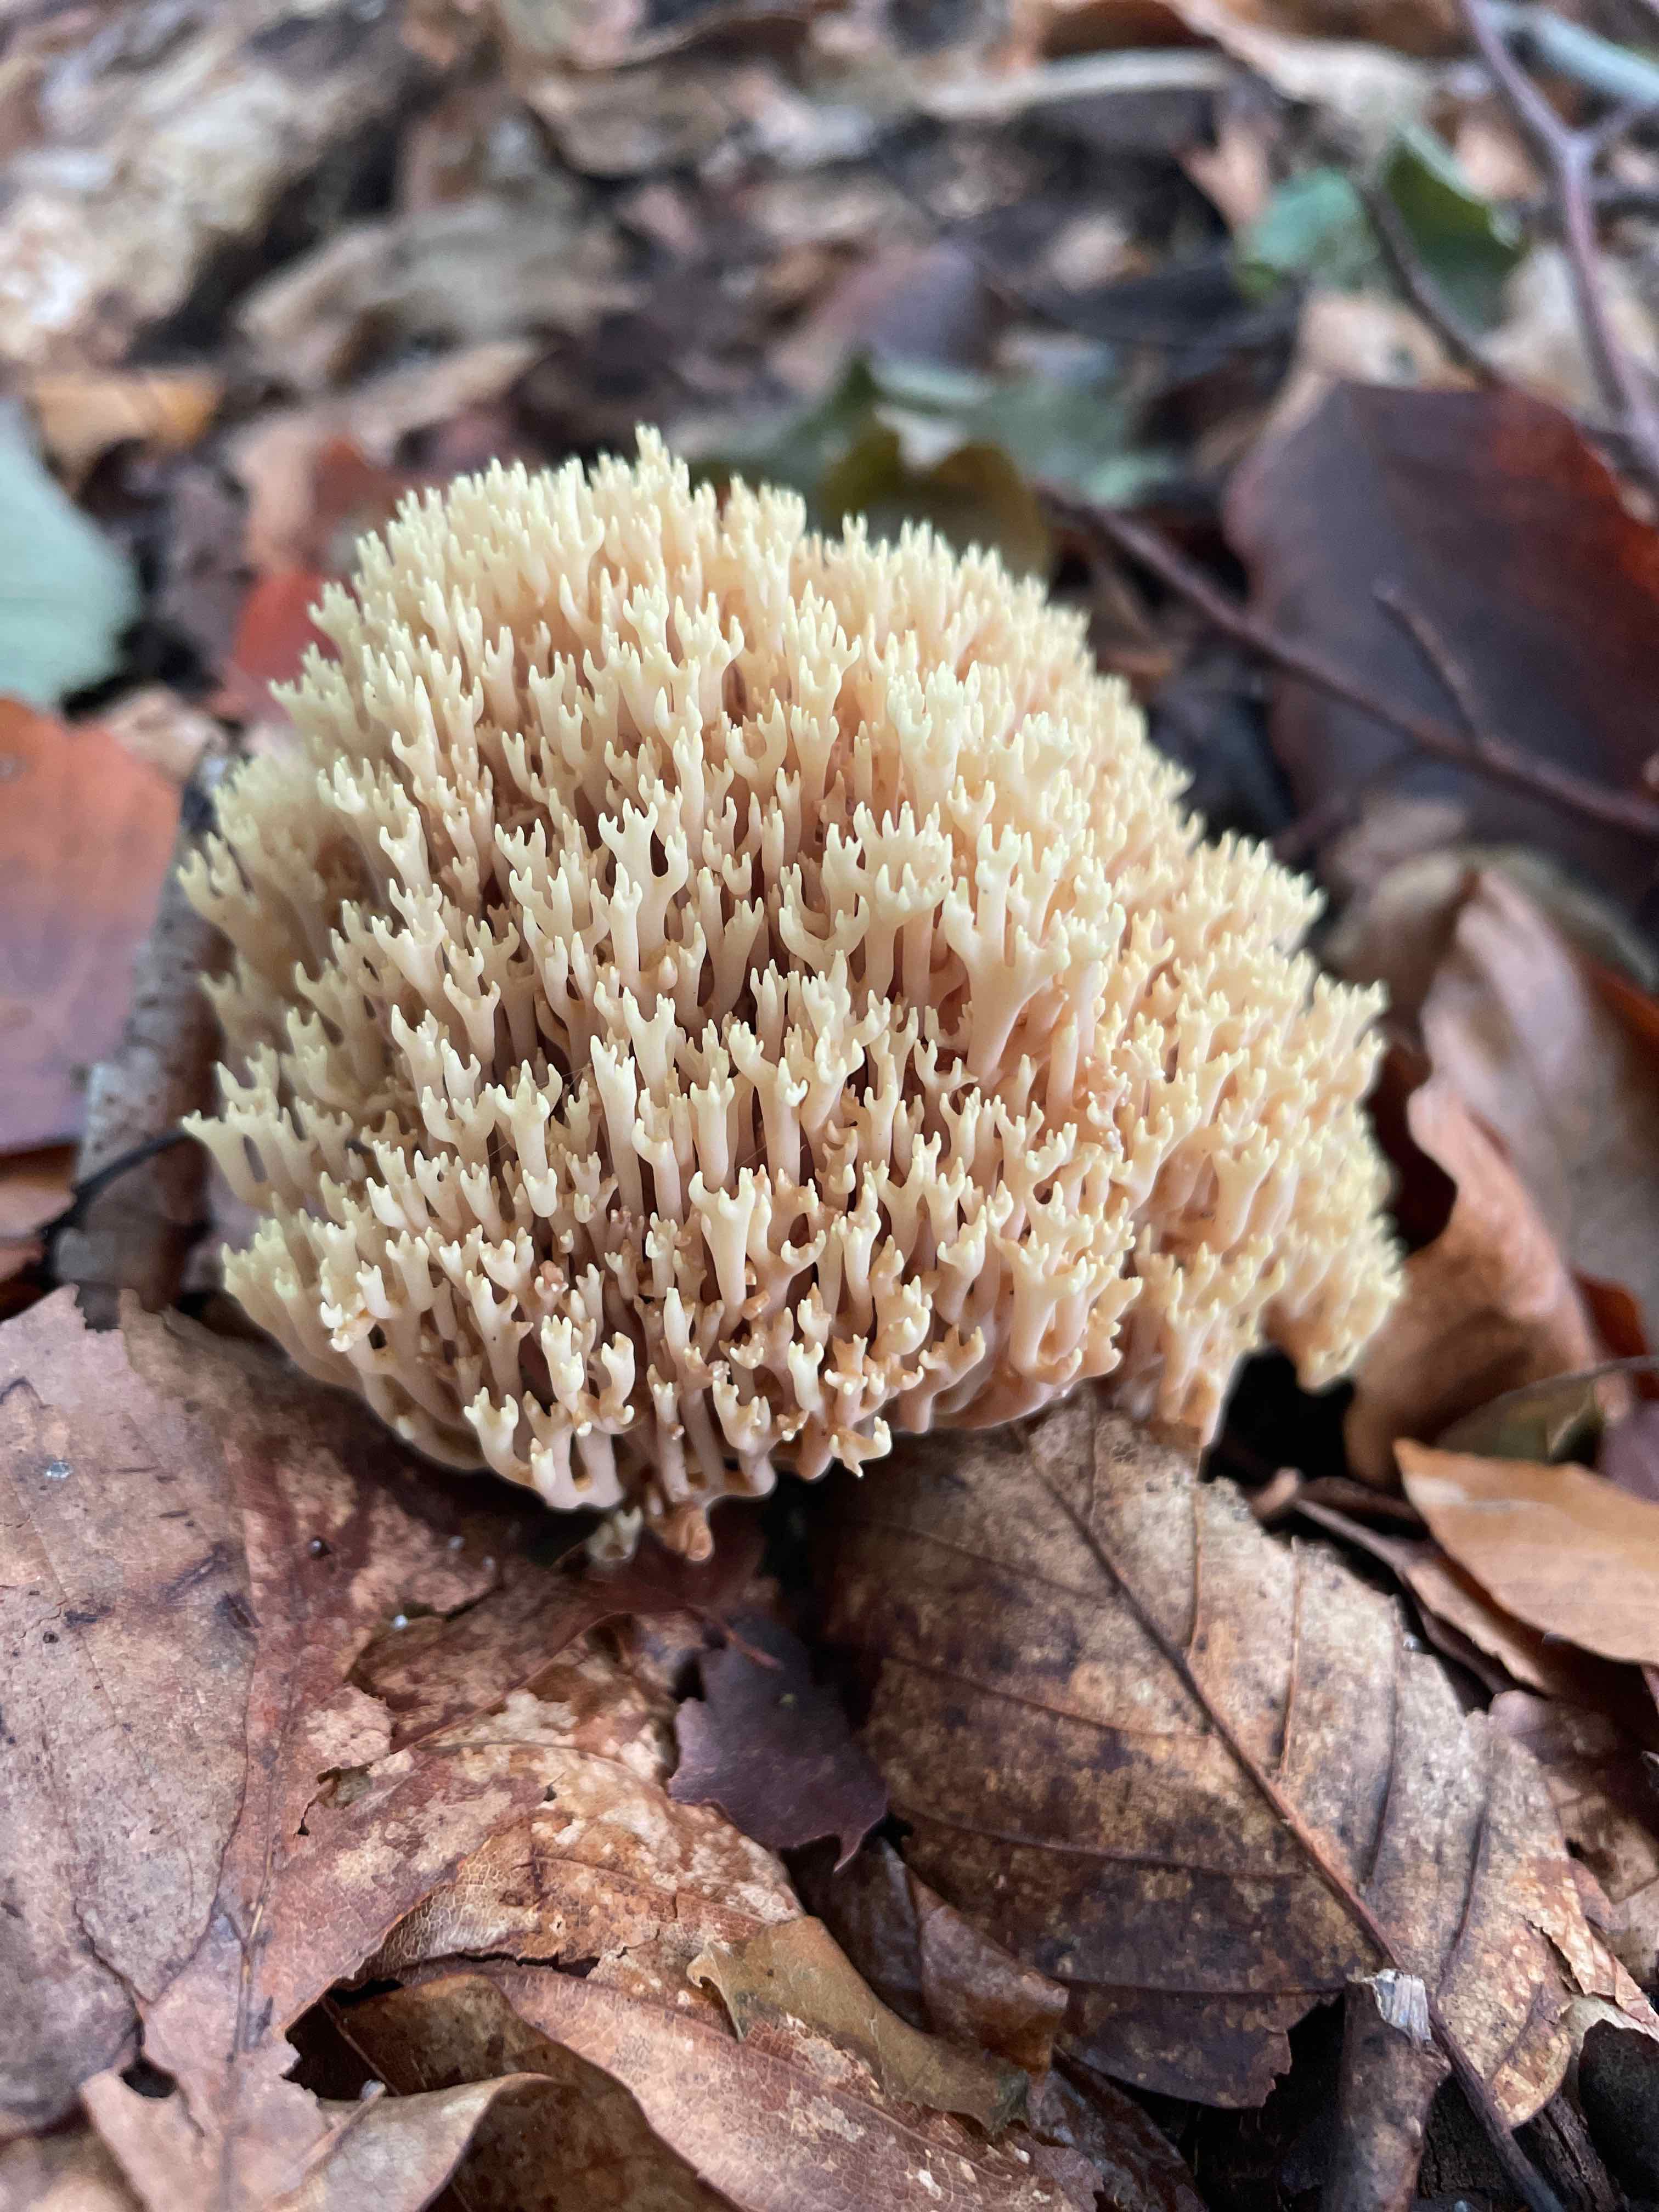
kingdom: Fungi
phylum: Basidiomycota
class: Agaricomycetes
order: Gomphales
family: Gomphaceae
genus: Ramaria
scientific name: Ramaria stricta
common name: rank koralsvamp
